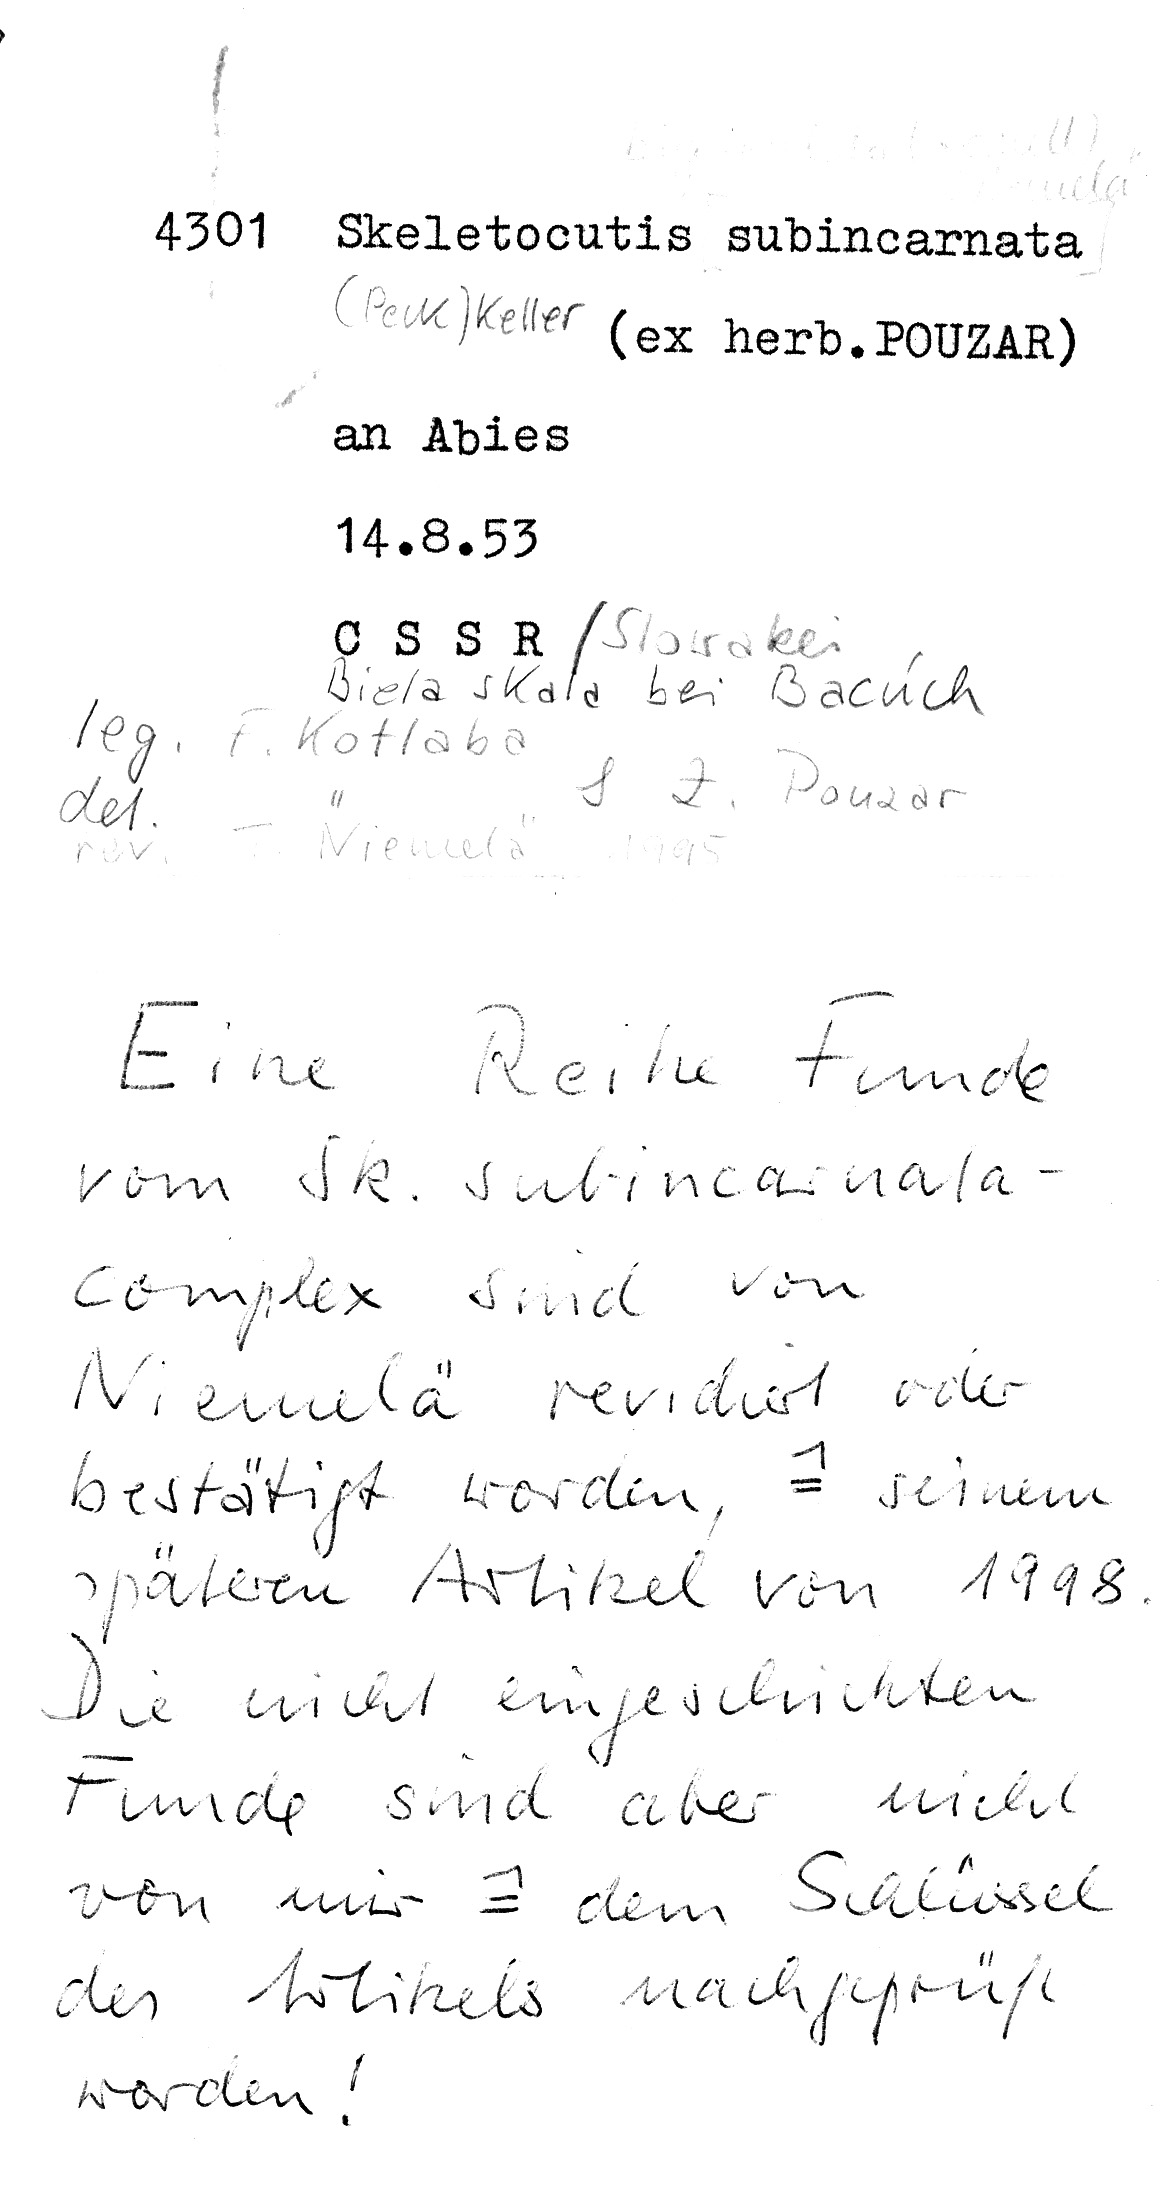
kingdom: Fungi
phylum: Basidiomycota
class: Agaricomycetes
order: Polyporales
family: Incrustoporiaceae
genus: Skeletocutis
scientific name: Skeletocutis subincarnata
